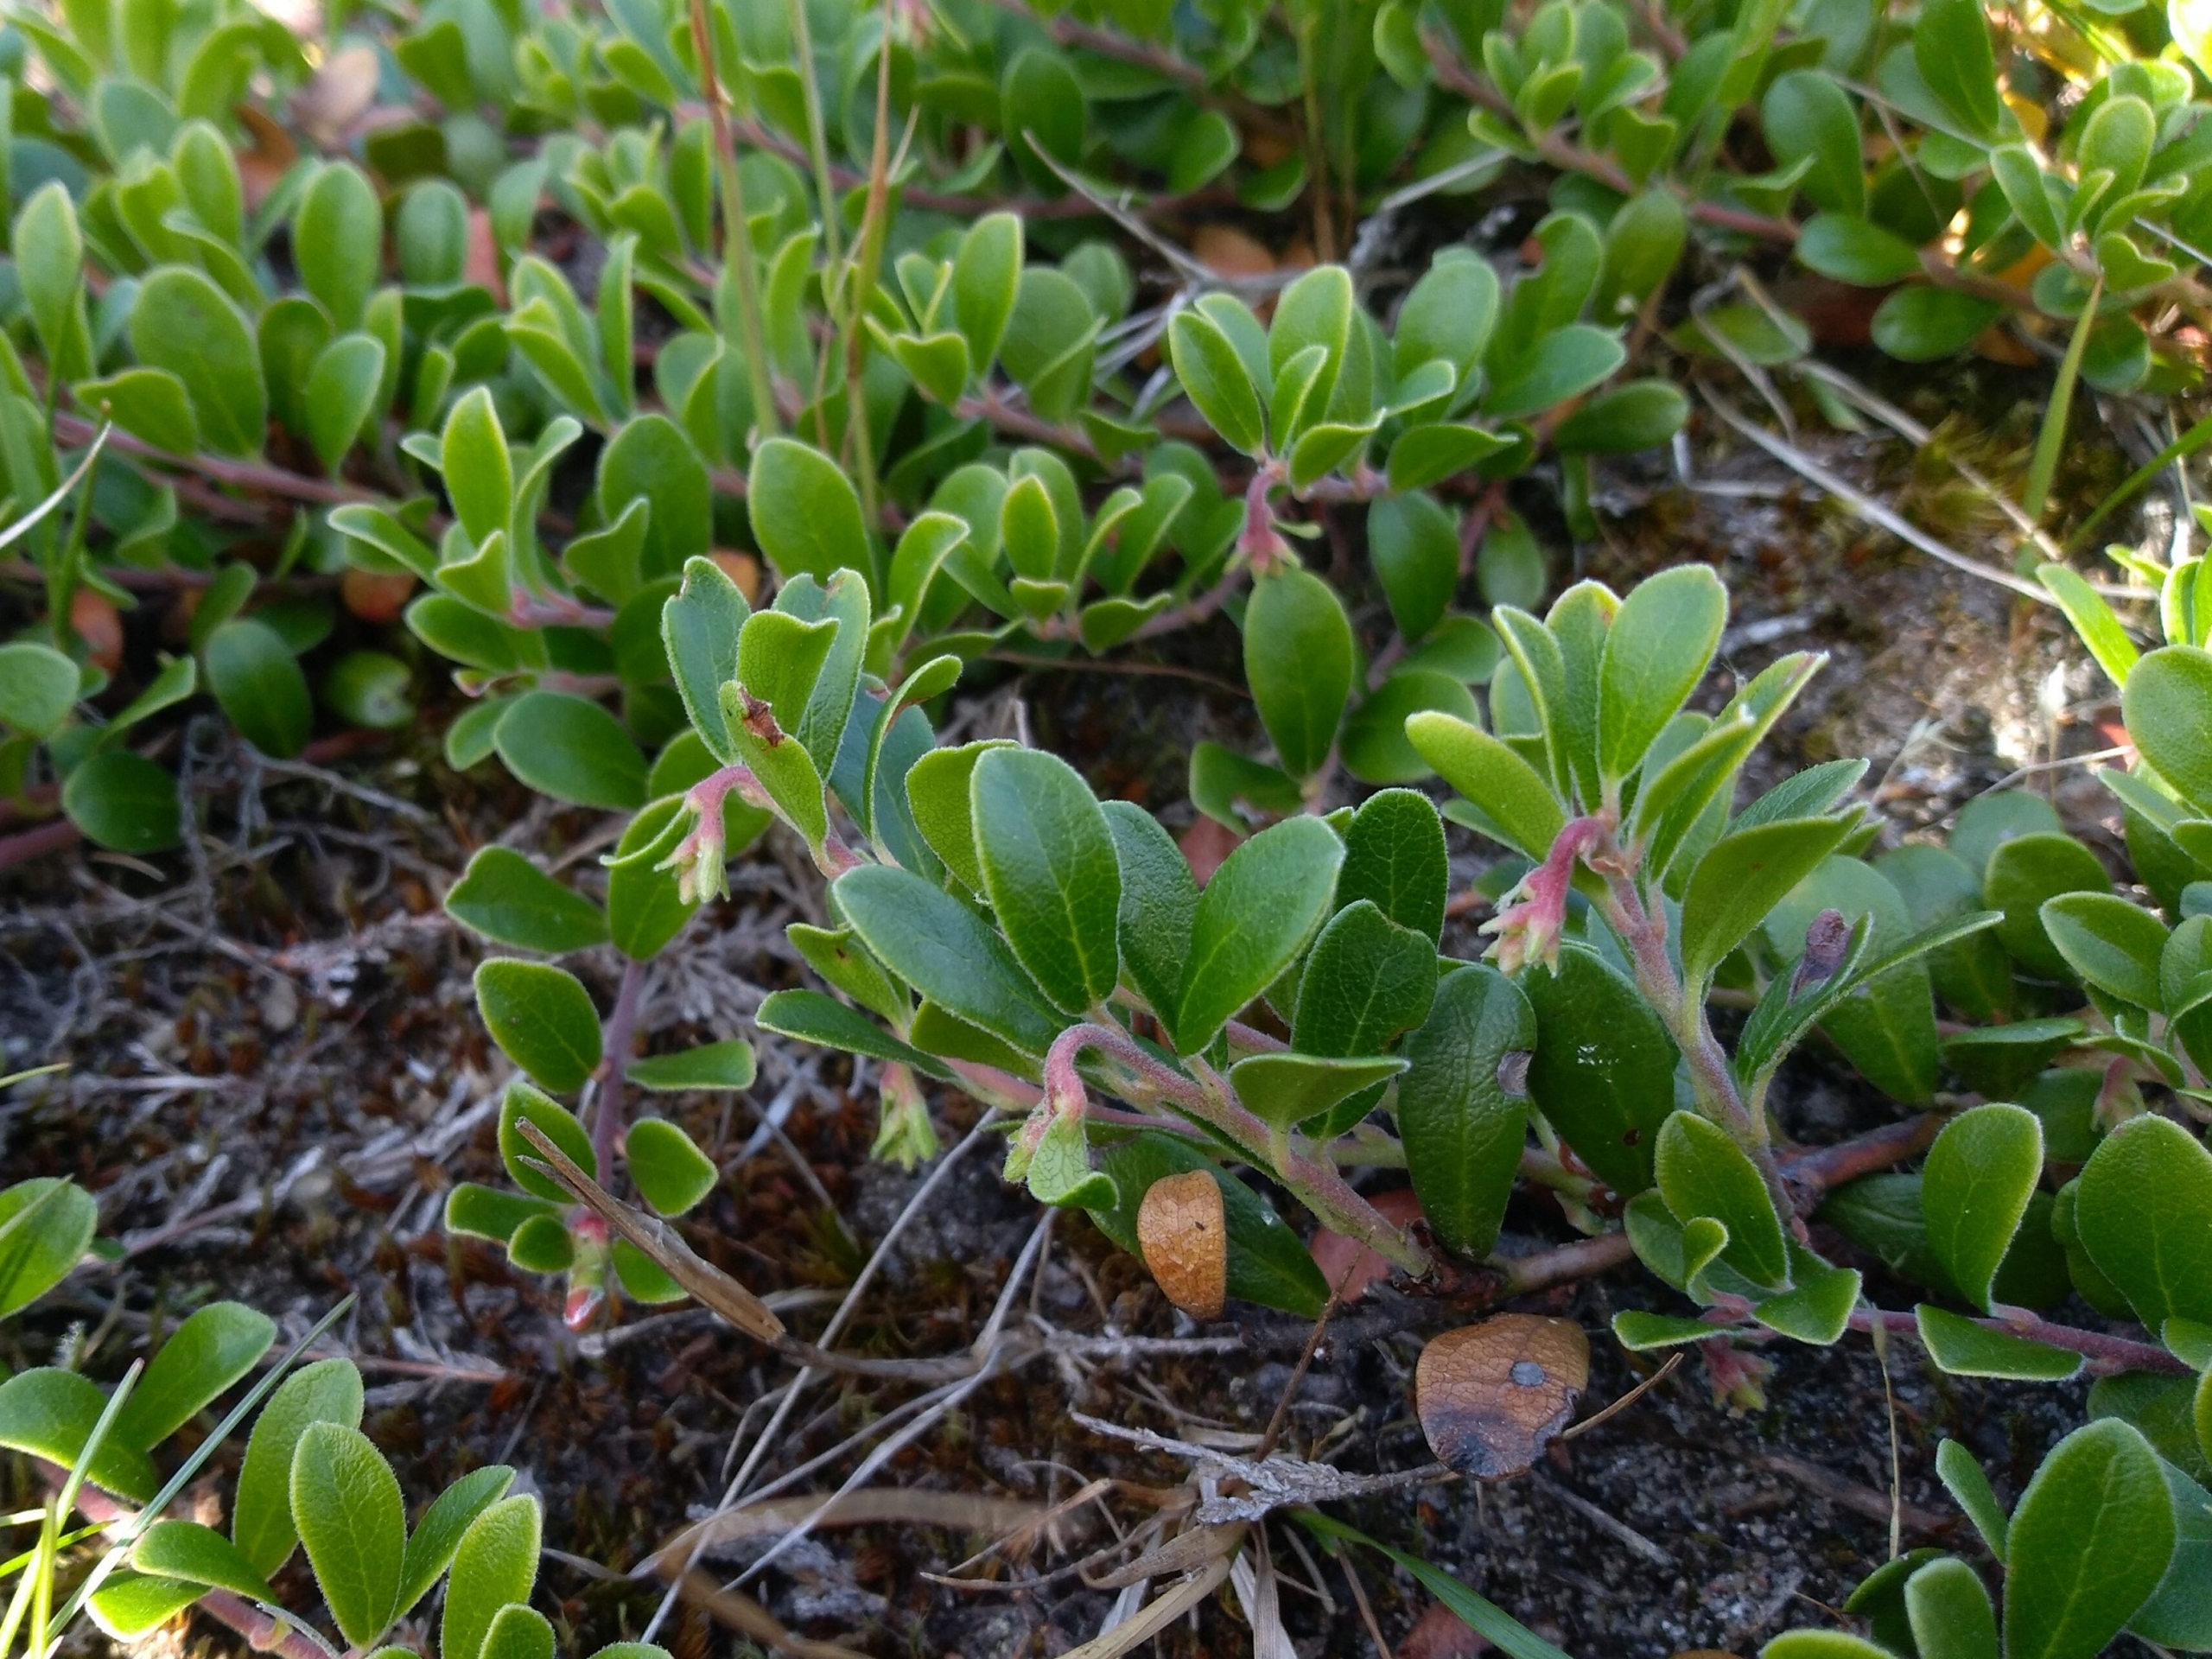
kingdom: Plantae
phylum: Tracheophyta
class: Magnoliopsida
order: Ericales
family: Ericaceae
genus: Arctostaphylos
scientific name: Arctostaphylos uva-ursi
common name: Hede-melbærris
